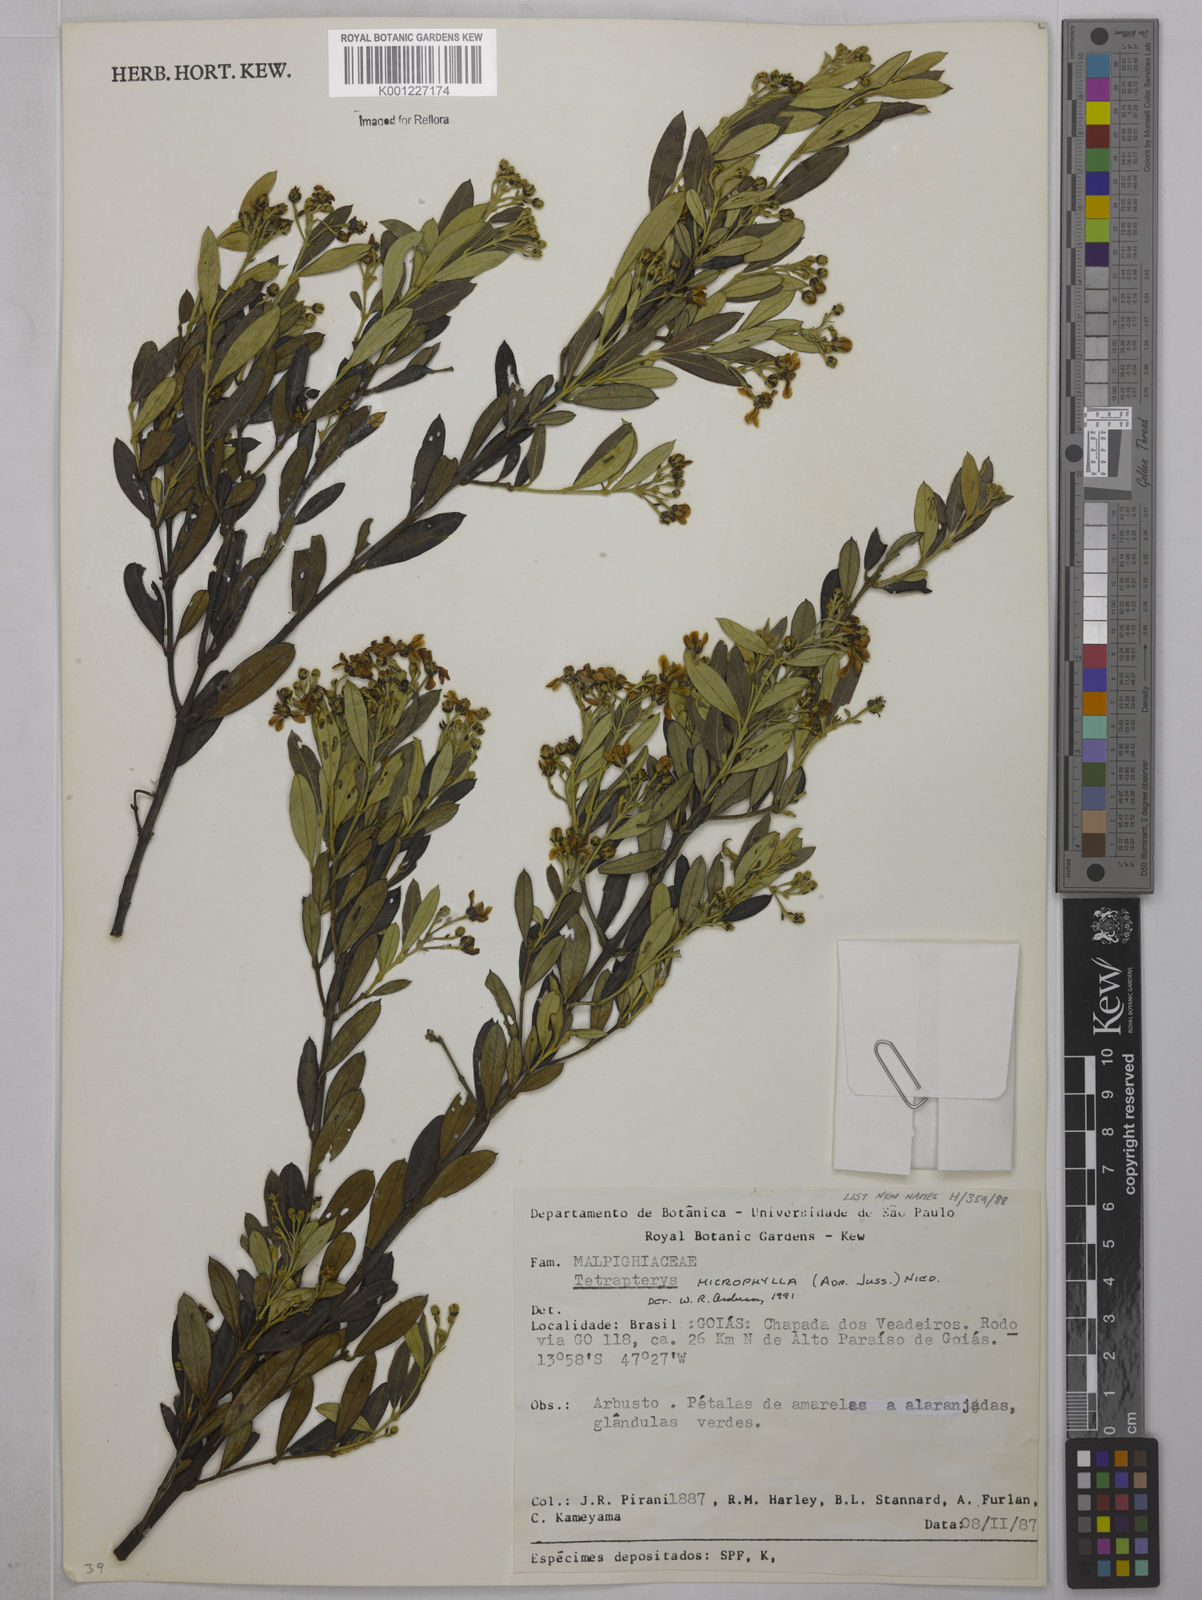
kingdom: Plantae
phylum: Tracheophyta
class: Magnoliopsida
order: Malpighiales
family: Malpighiaceae
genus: Glicophyllum
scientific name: Glicophyllum microphyllum
